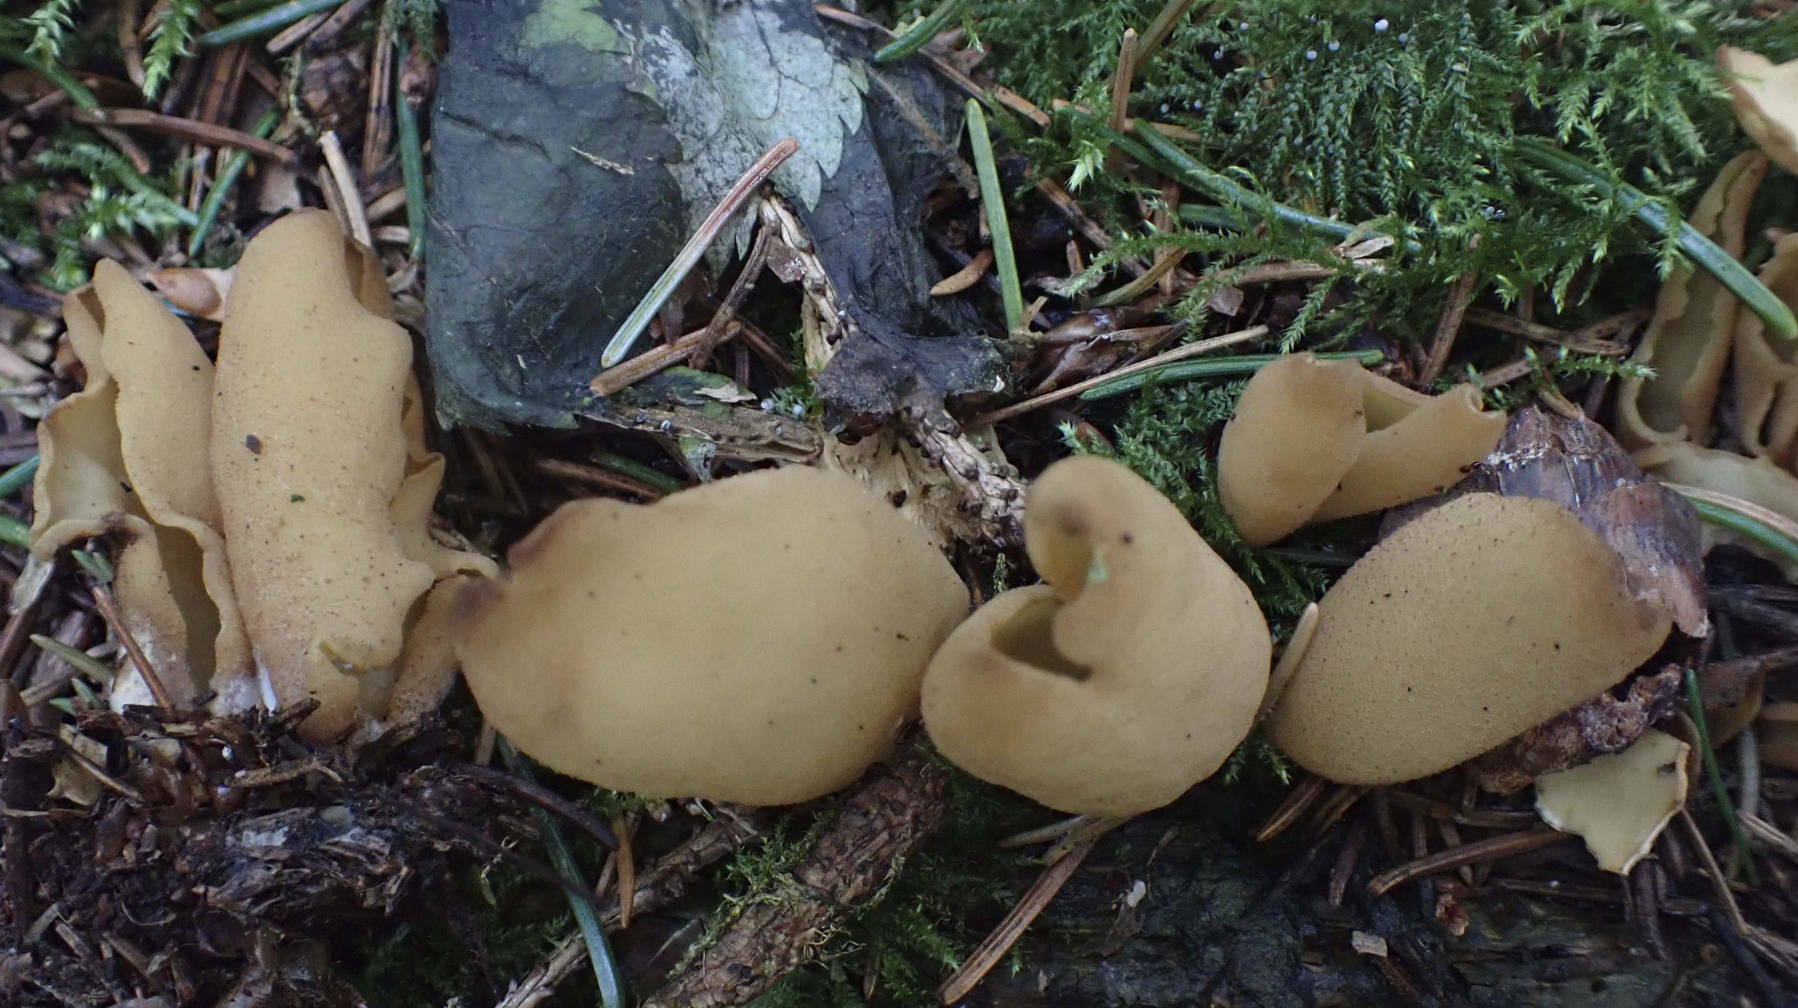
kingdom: Fungi
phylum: Ascomycota
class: Pezizomycetes
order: Pezizales
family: Otideaceae
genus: Otidea
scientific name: Otidea nannfeldtii
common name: jolle-ørebæger
